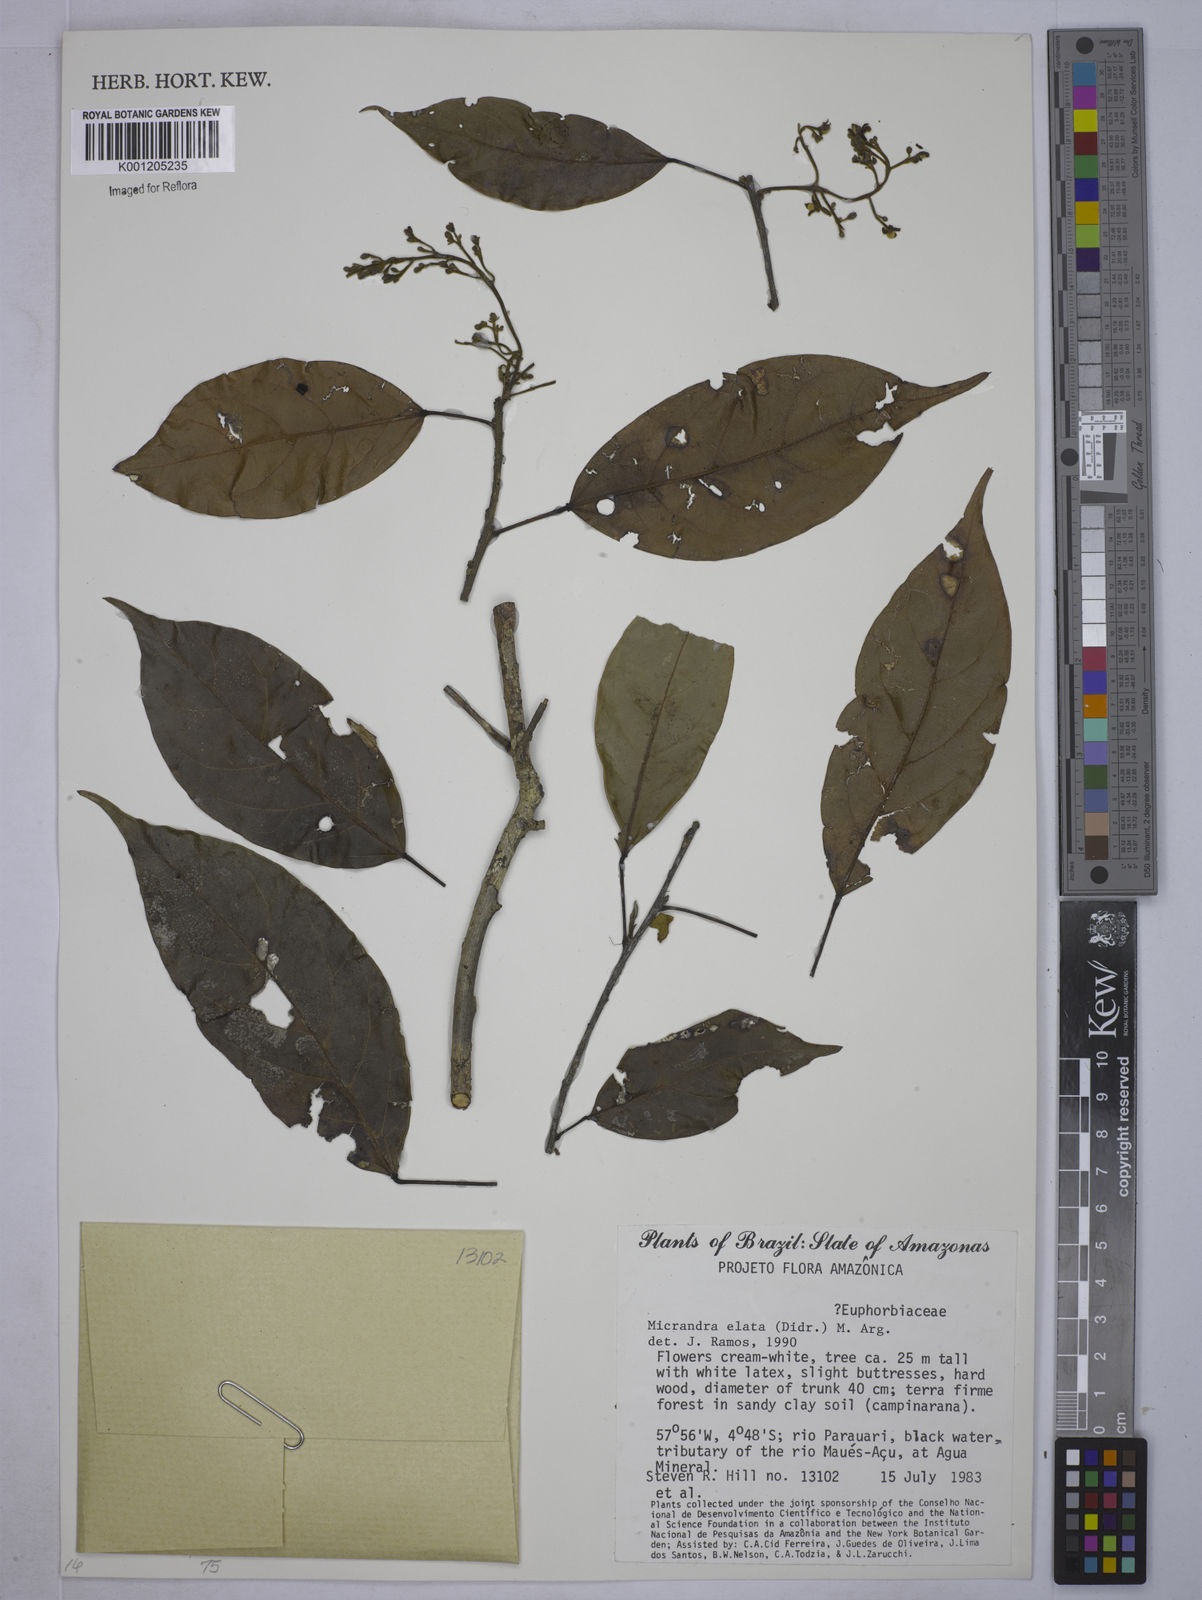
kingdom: Plantae
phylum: Tracheophyta
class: Magnoliopsida
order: Malpighiales
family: Euphorbiaceae
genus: Micrandra
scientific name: Micrandra
